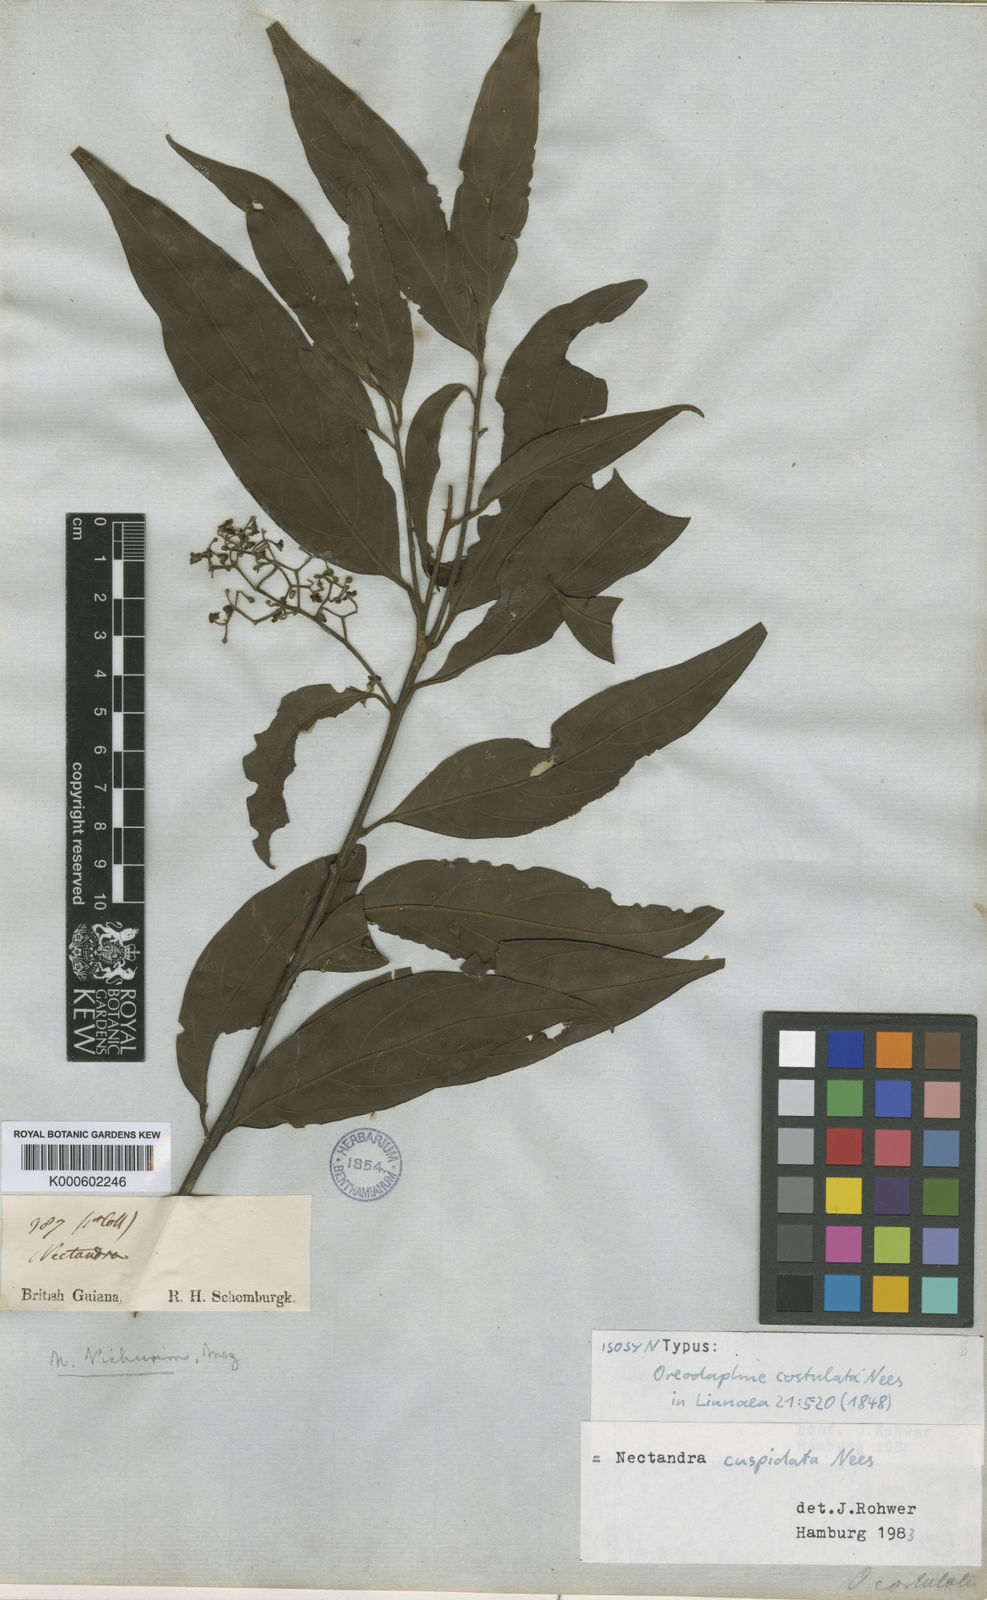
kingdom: Plantae
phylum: Tracheophyta
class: Magnoliopsida
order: Laurales
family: Lauraceae
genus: Ocotea
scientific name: Ocotea aciphylla
